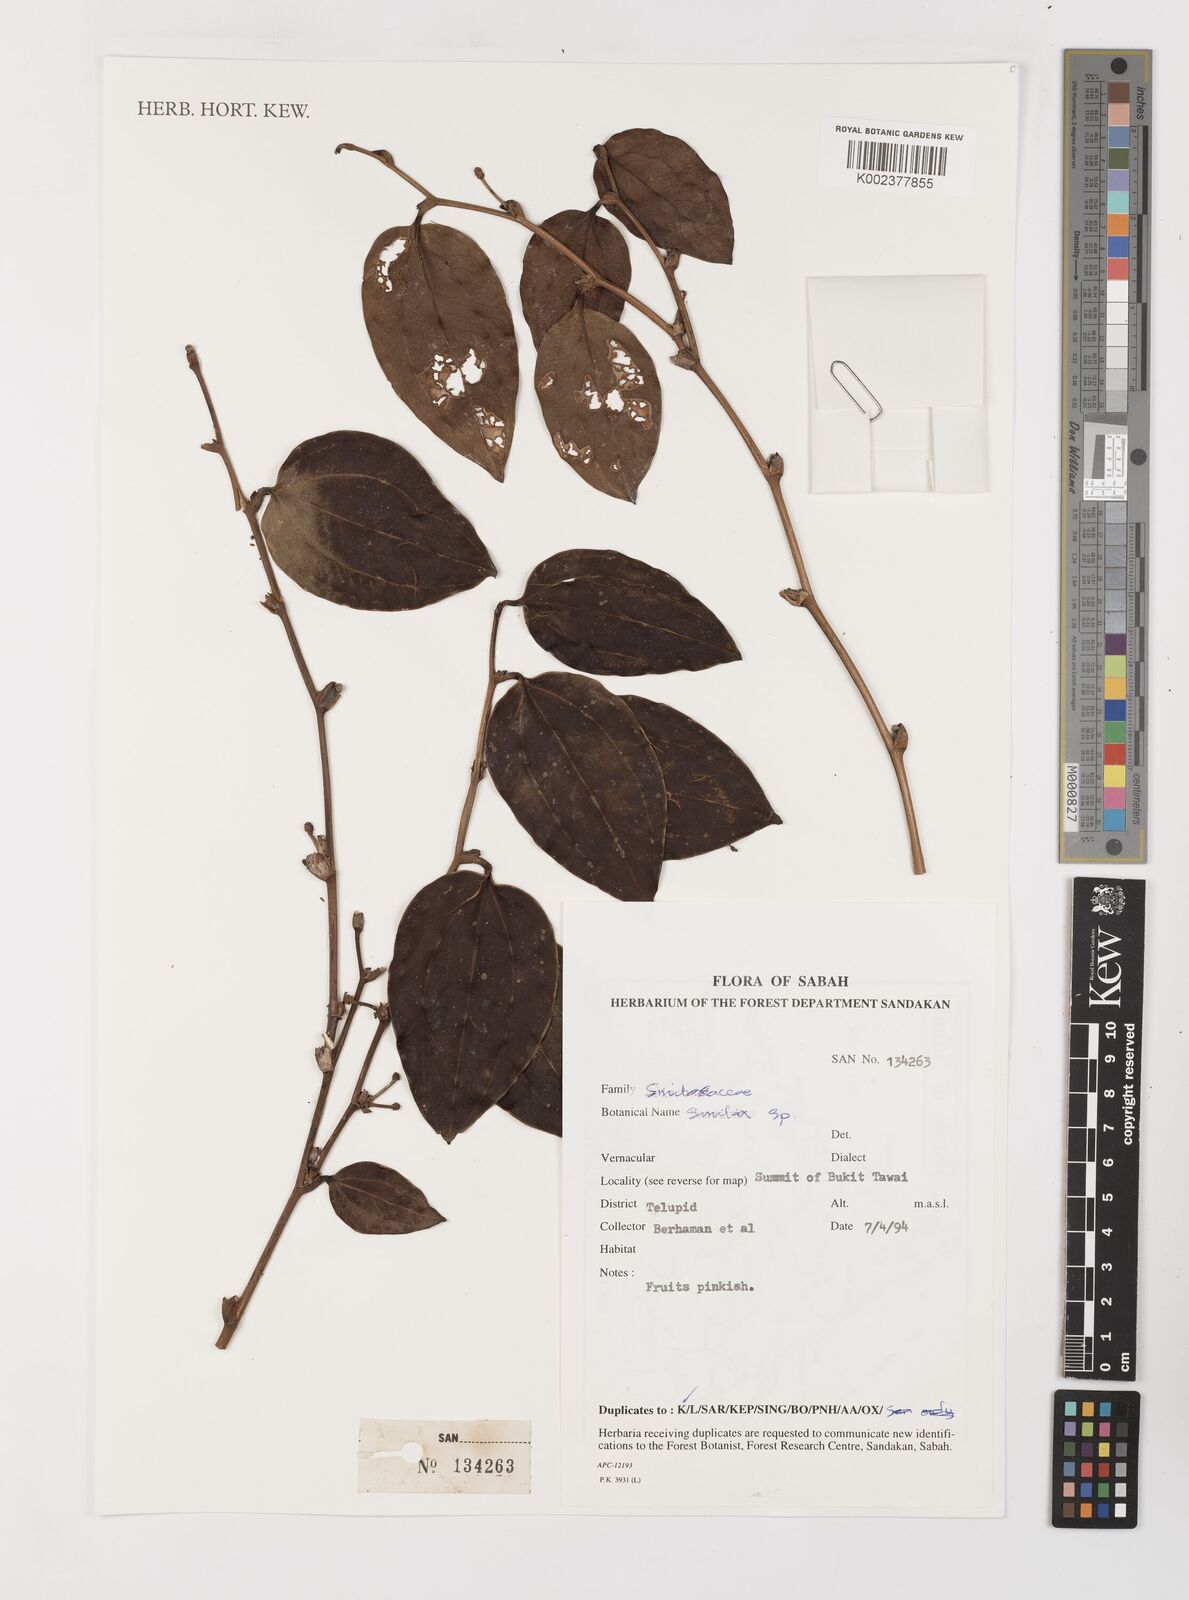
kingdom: Plantae
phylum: Tracheophyta
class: Liliopsida
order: Liliales
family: Smilacaceae
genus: Smilax
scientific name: Smilax
